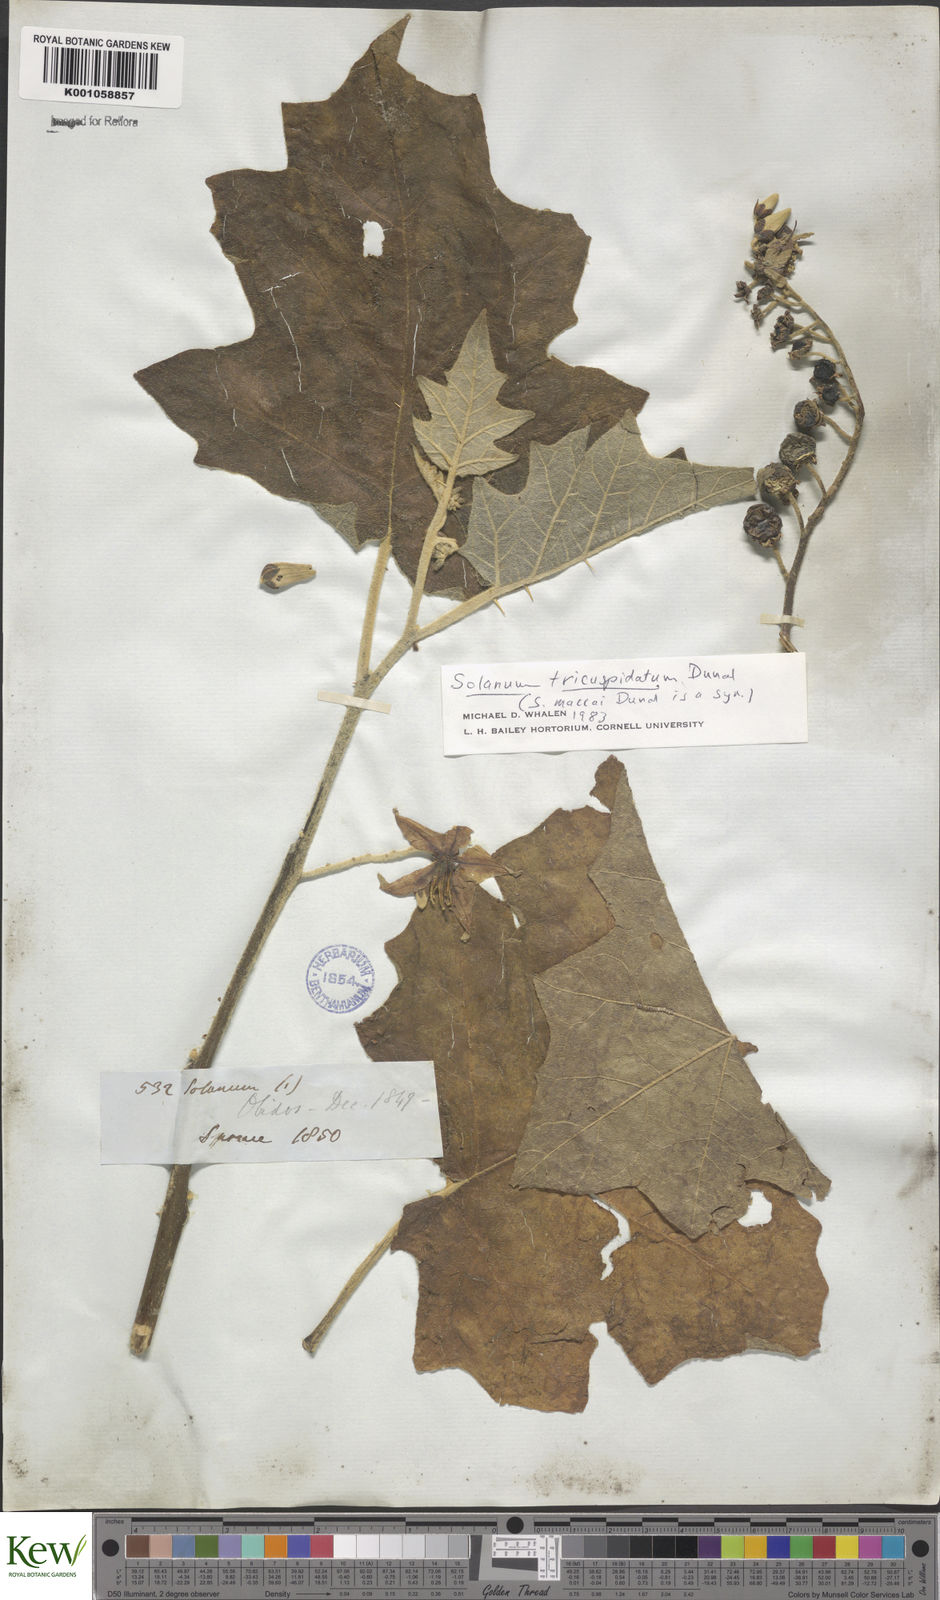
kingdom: Plantae
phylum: Tracheophyta
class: Magnoliopsida
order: Solanales
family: Solanaceae
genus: Solanum
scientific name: Solanum tricuspidatum
